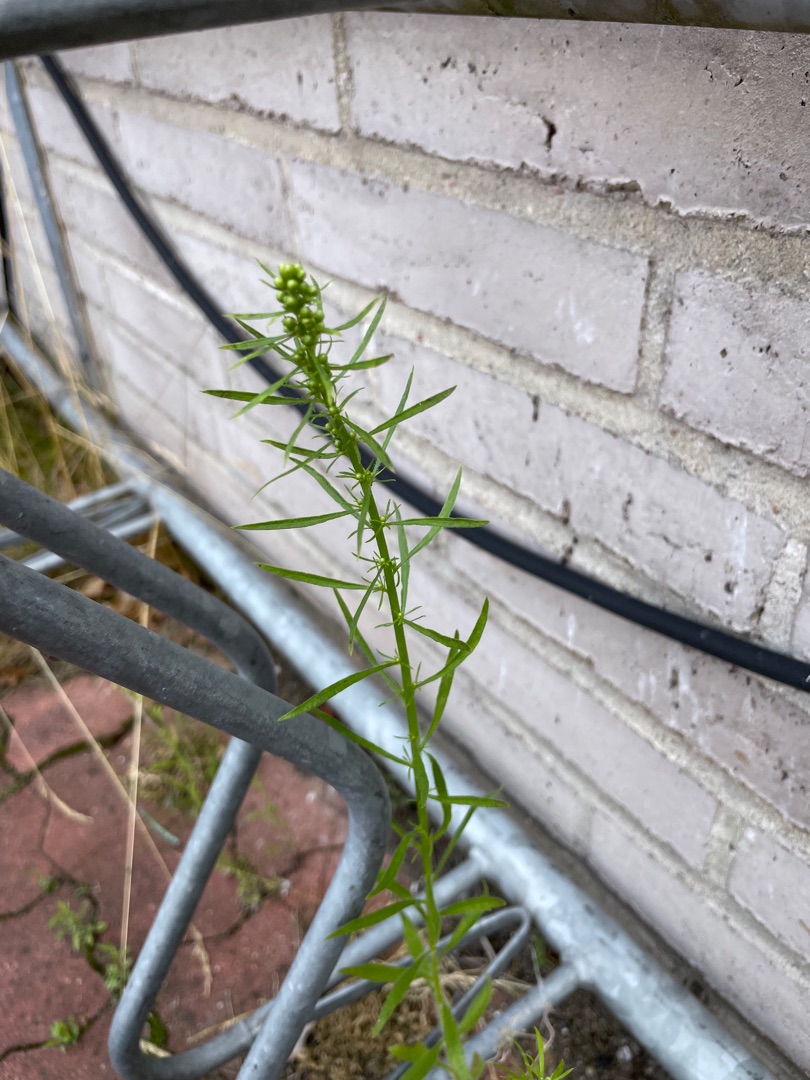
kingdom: Plantae
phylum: Tracheophyta
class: Magnoliopsida
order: Asterales
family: Asteraceae
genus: Erigeron
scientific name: Erigeron canadensis
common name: Kanadisk bakkestjerne
